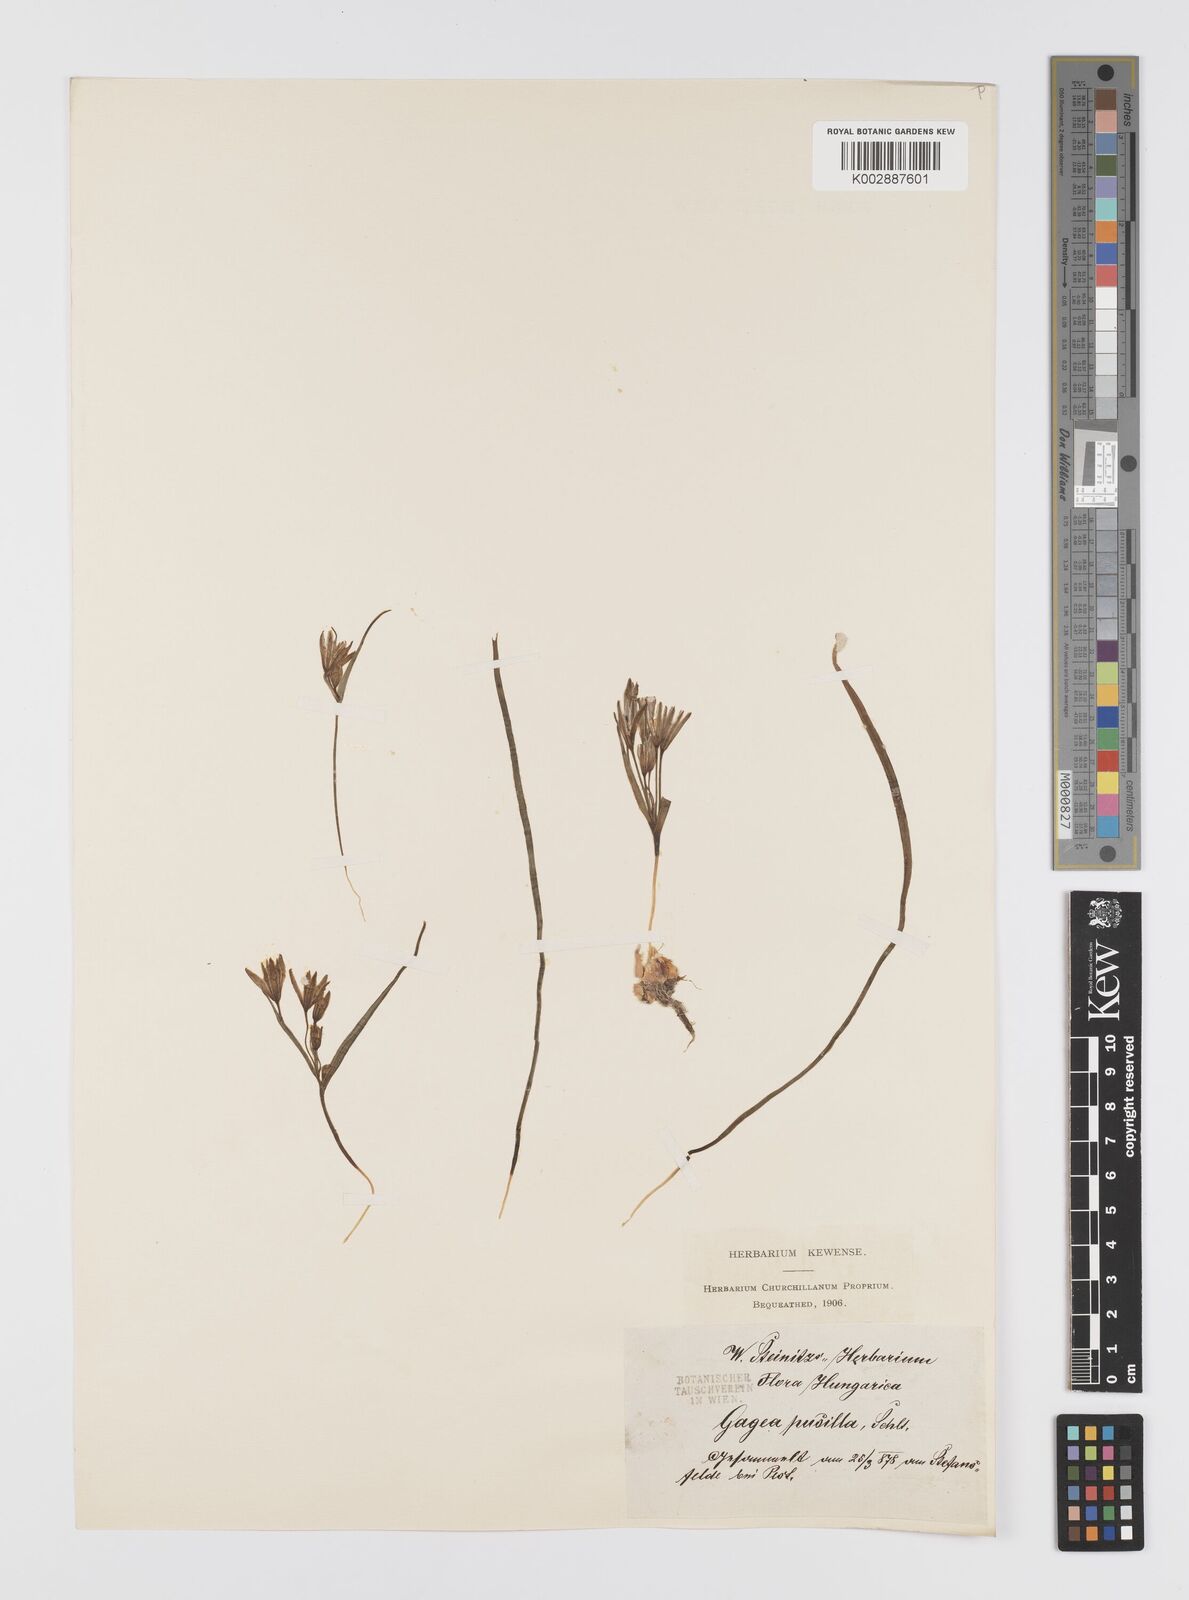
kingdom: Plantae
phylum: Tracheophyta
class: Liliopsida
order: Liliales
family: Liliaceae
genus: Gagea
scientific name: Gagea pusilla
